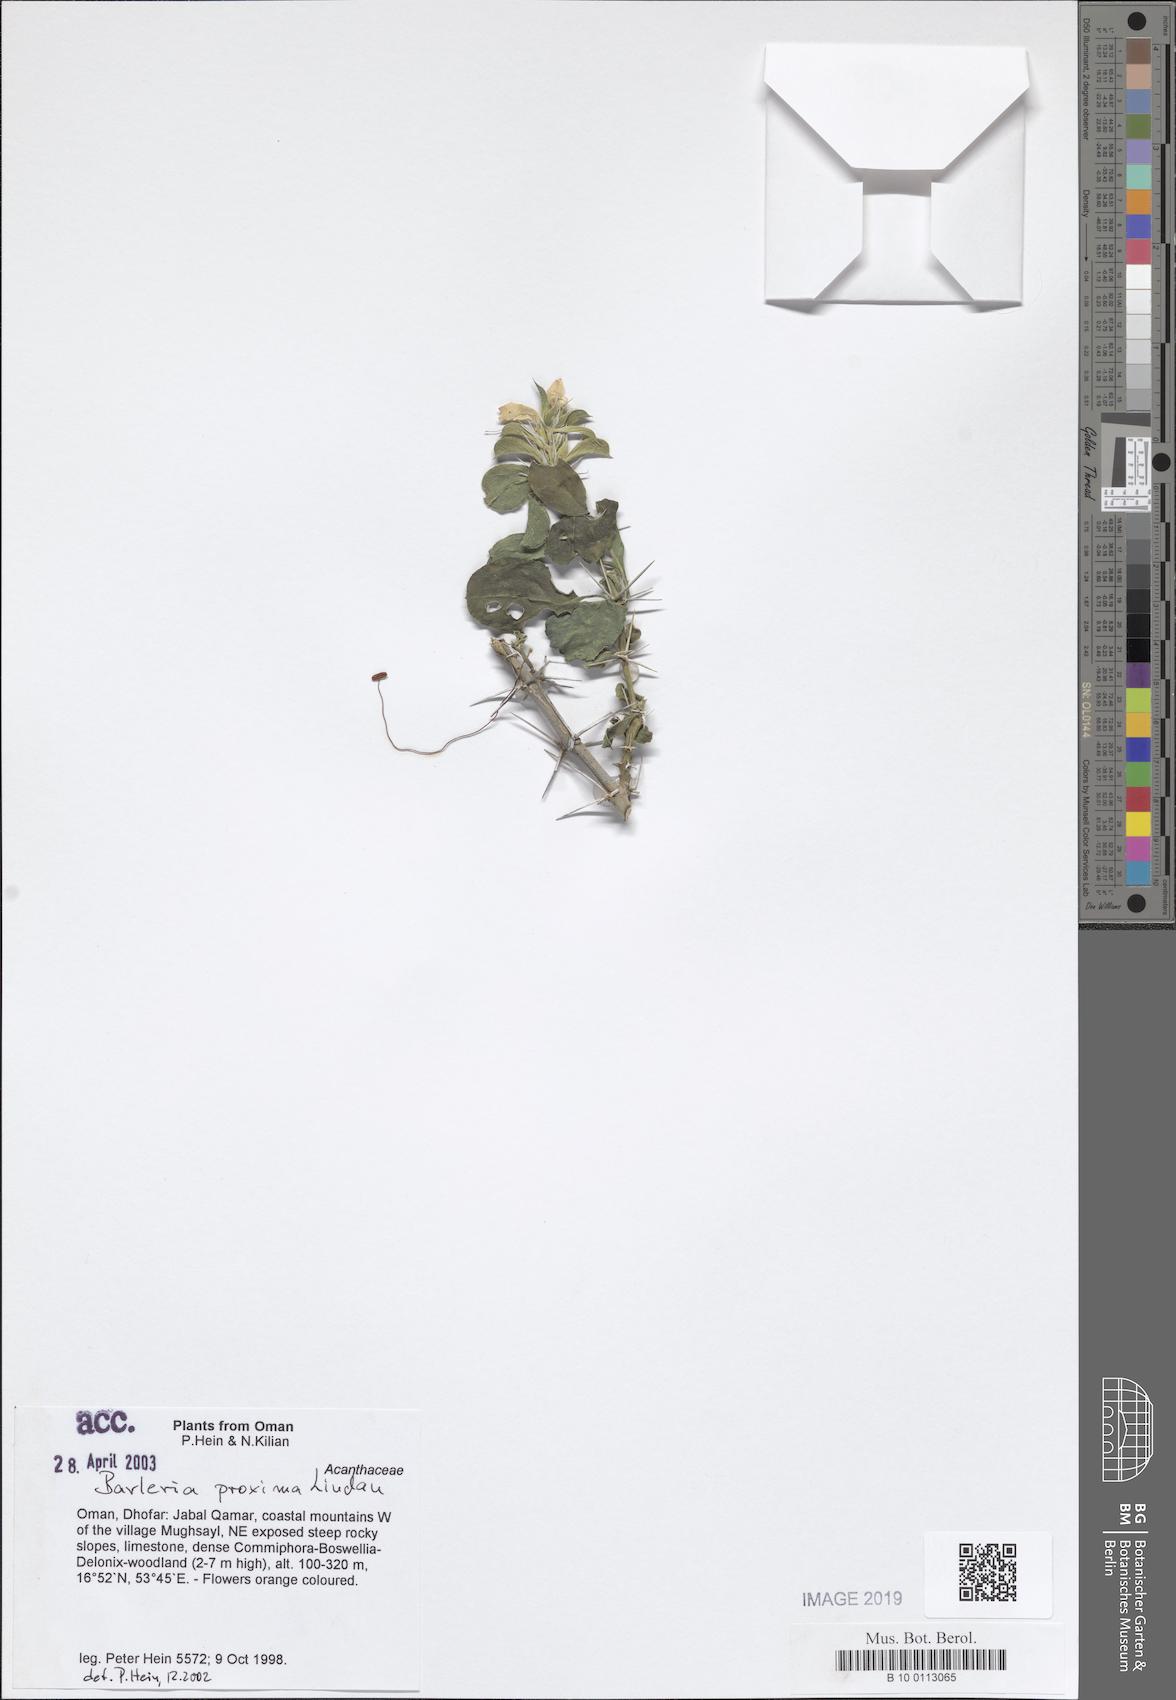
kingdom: Plantae
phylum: Tracheophyta
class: Magnoliopsida
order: Lamiales
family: Acanthaceae
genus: Barleria
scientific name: Barleria proxima
